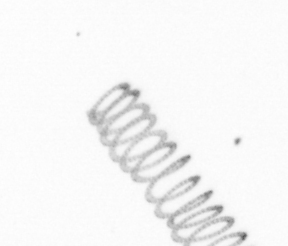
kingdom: Chromista
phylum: Ochrophyta
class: Bacillariophyceae
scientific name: Bacillariophyceae
